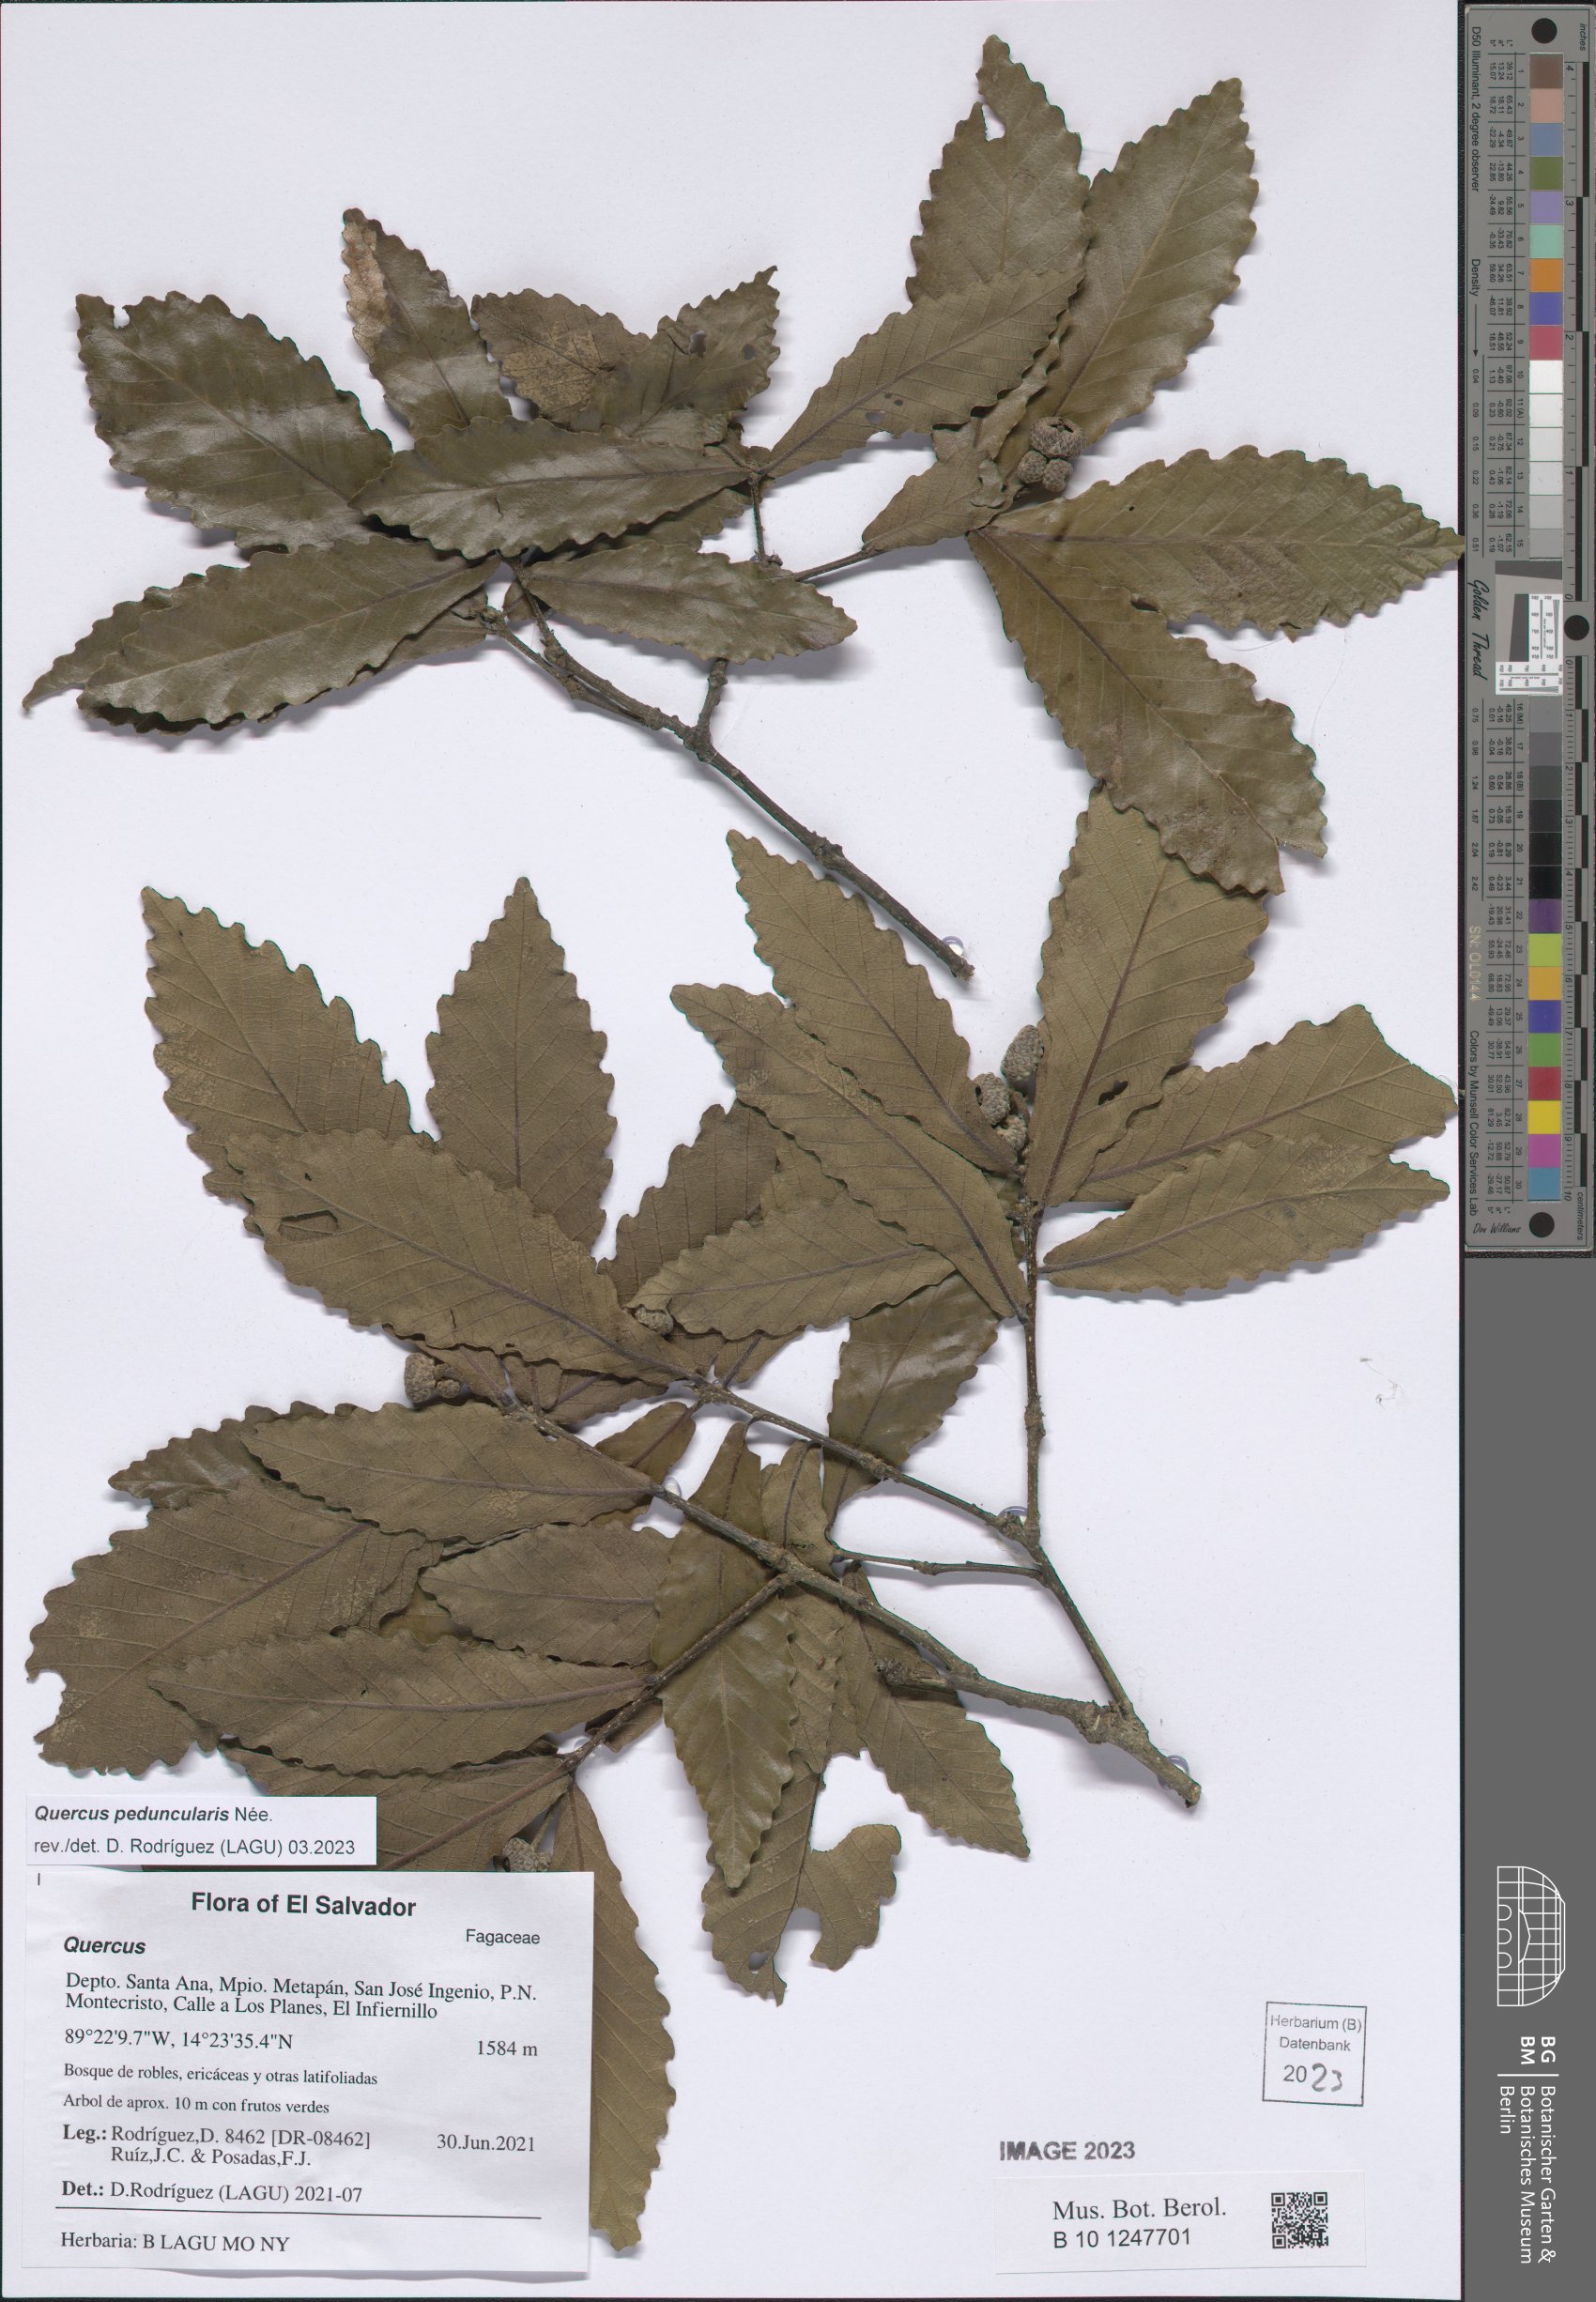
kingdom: Plantae
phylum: Tracheophyta
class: Magnoliopsida
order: Fagales
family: Fagaceae
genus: Quercus
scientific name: Quercus peduncularis
